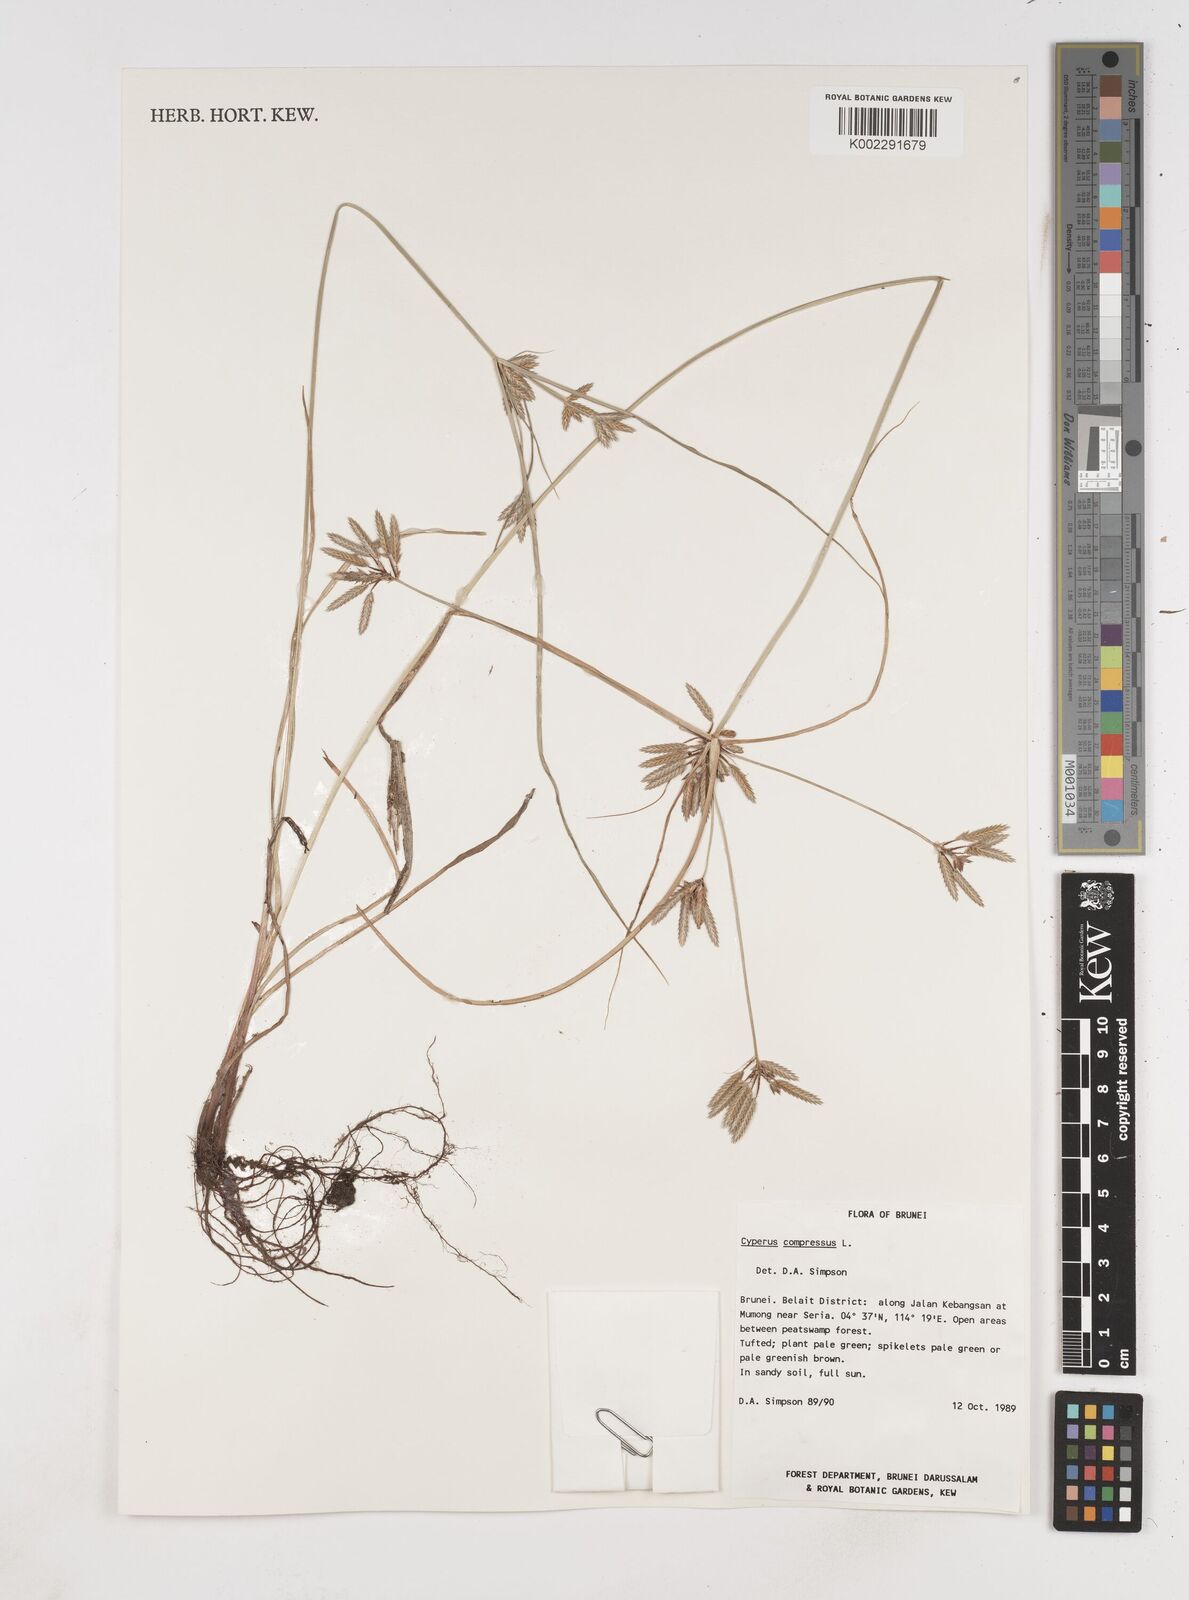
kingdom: Plantae
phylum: Tracheophyta
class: Liliopsida
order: Poales
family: Cyperaceae
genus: Cyperus
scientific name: Cyperus compressus
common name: Poorland flatsedge
